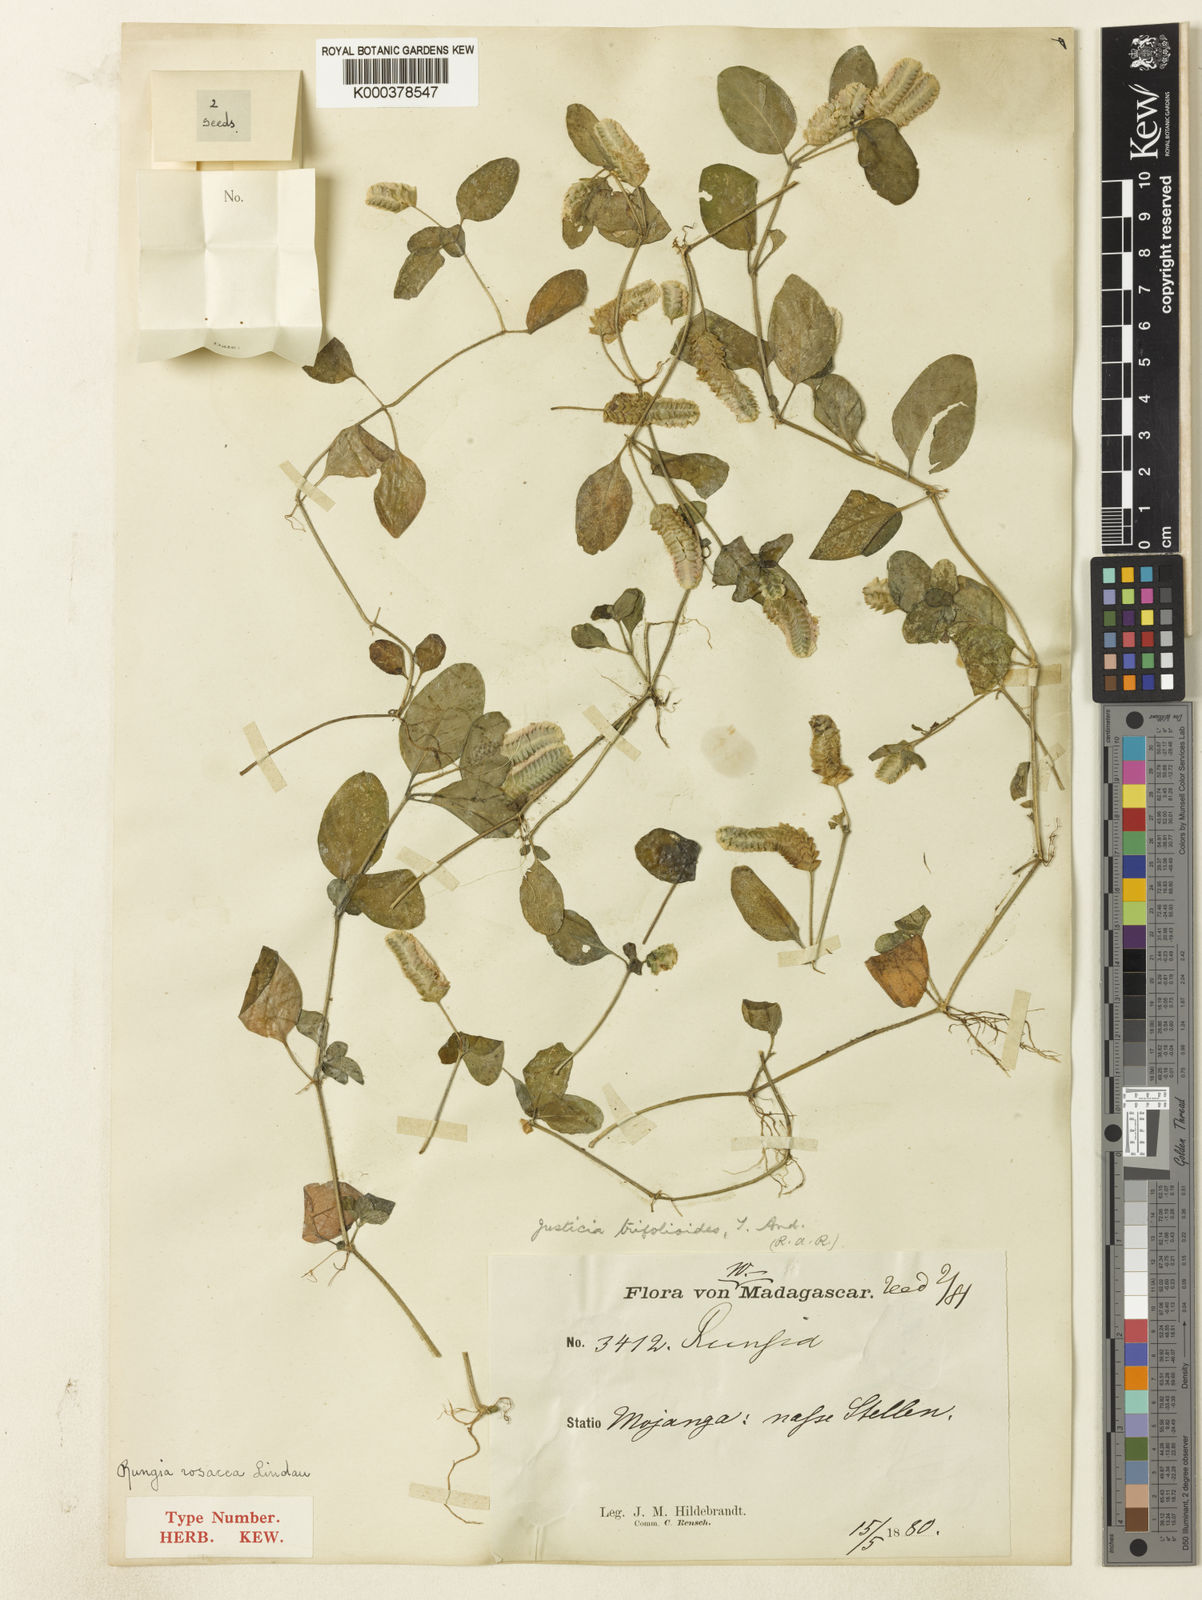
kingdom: Plantae
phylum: Tracheophyta
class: Magnoliopsida
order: Lamiales
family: Acanthaceae
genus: Anisostachya
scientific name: Anisostachya reptans
